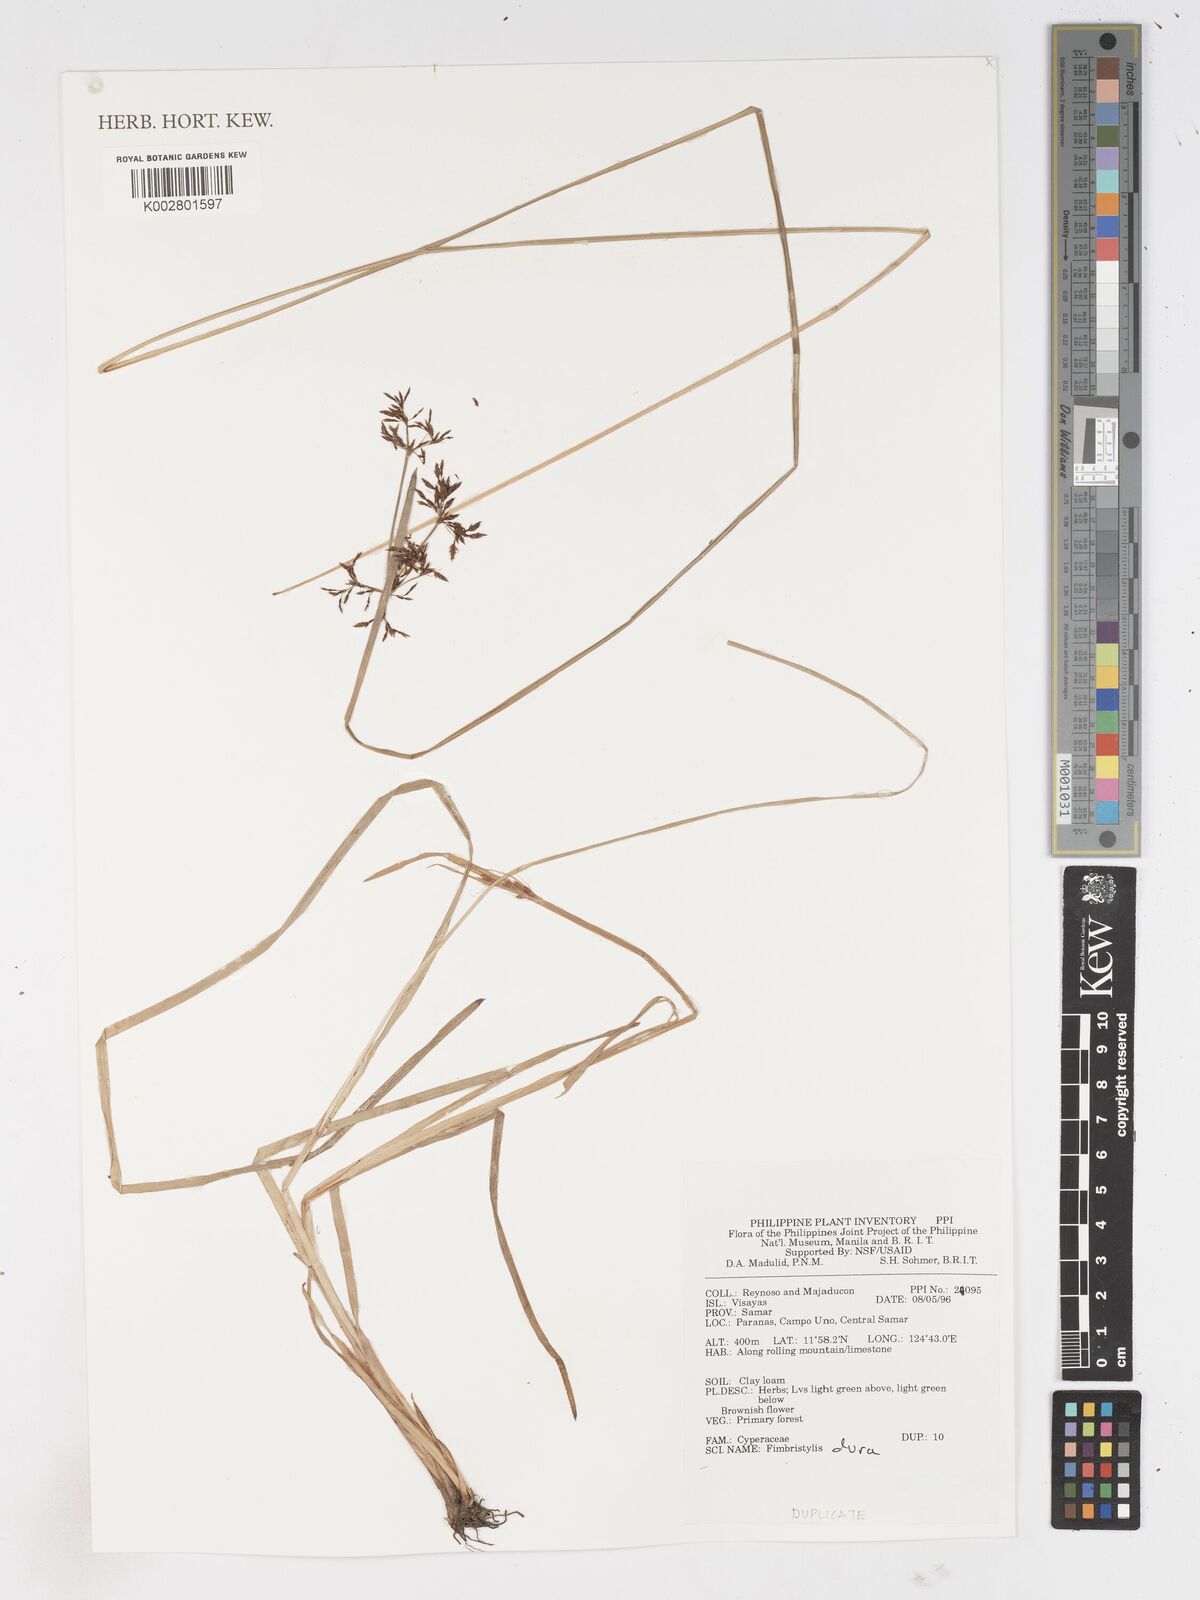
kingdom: Plantae
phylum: Tracheophyta
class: Liliopsida
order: Poales
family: Cyperaceae
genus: Fimbristylis
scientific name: Fimbristylis dura
